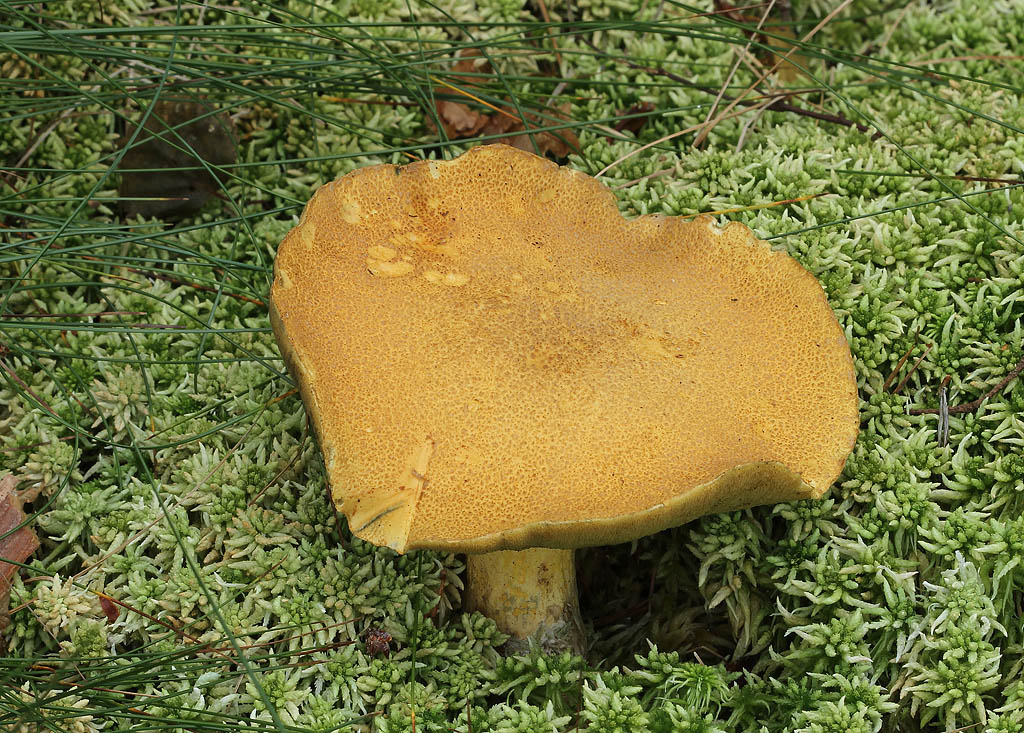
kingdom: Fungi
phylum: Basidiomycota
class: Agaricomycetes
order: Boletales
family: Suillaceae
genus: Suillus
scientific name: Suillus variegatus
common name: broget slimrørhat
